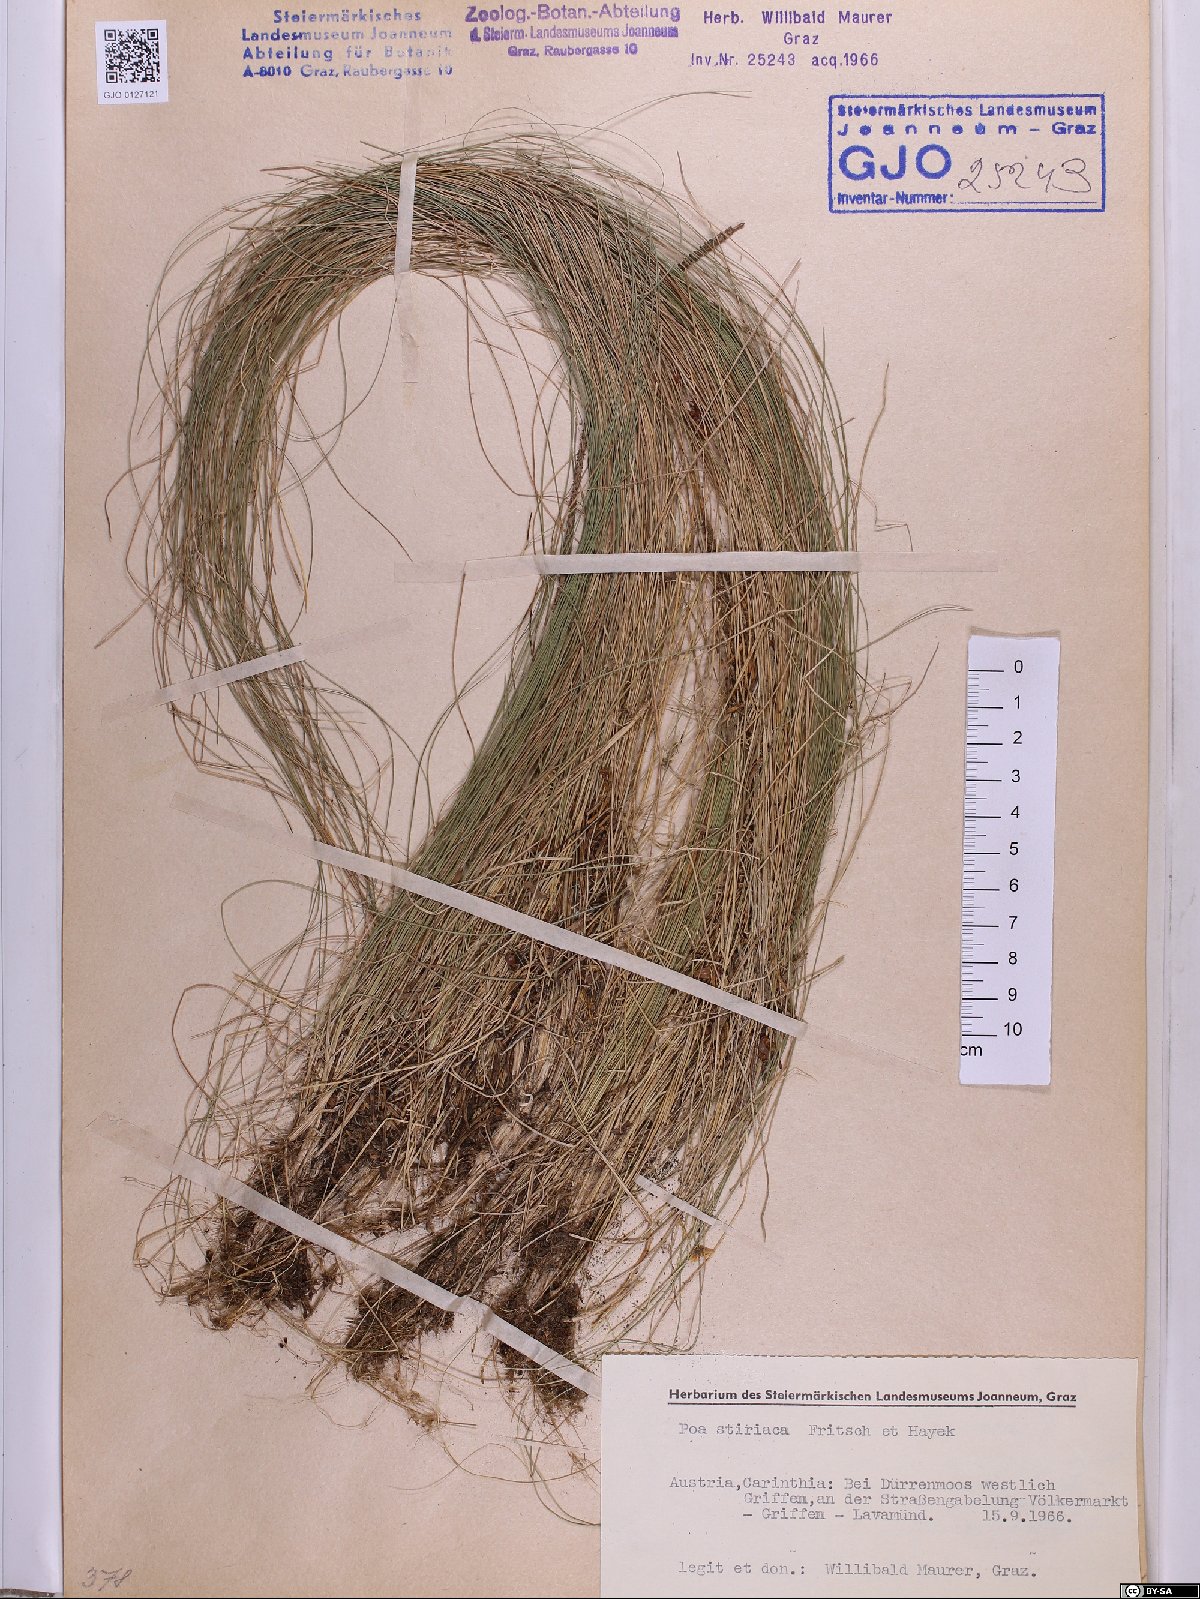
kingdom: Plantae
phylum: Tracheophyta
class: Liliopsida
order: Poales
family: Poaceae
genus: Poa
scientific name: Poa stiriaca
